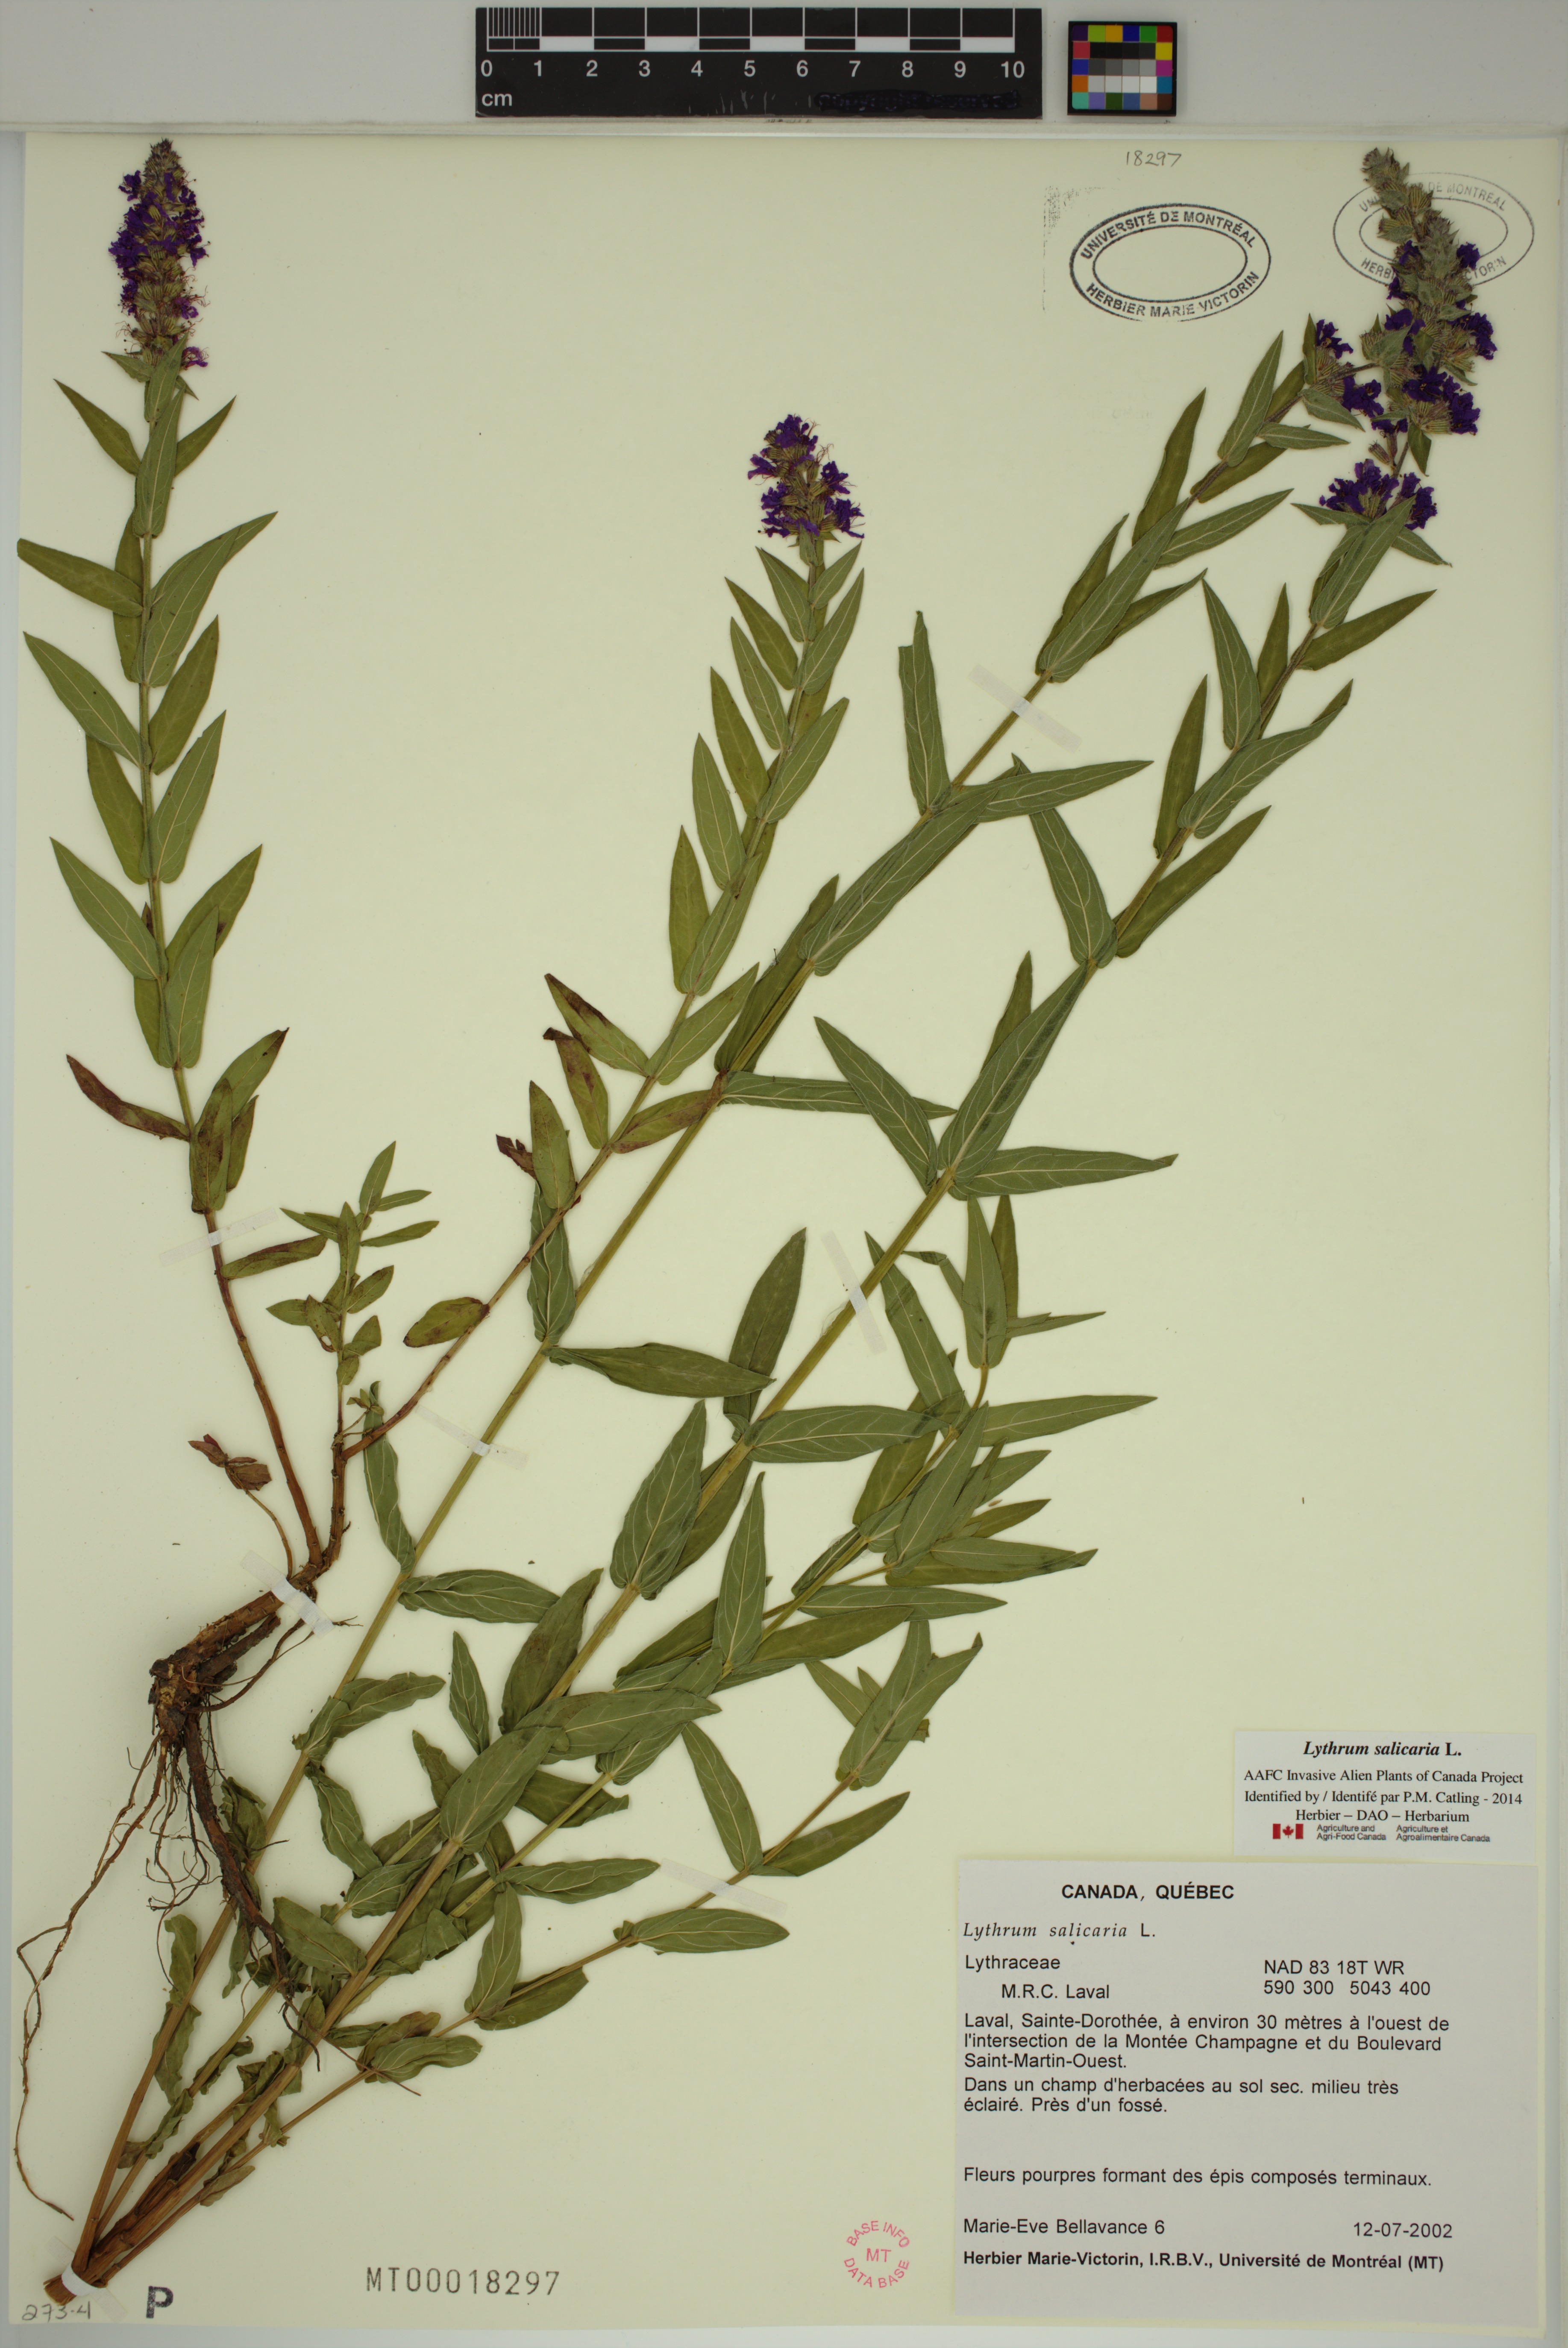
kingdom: Plantae
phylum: Tracheophyta
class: Magnoliopsida
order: Myrtales
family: Lythraceae
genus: Lythrum
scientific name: Lythrum salicaria
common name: Purple loosestrife
